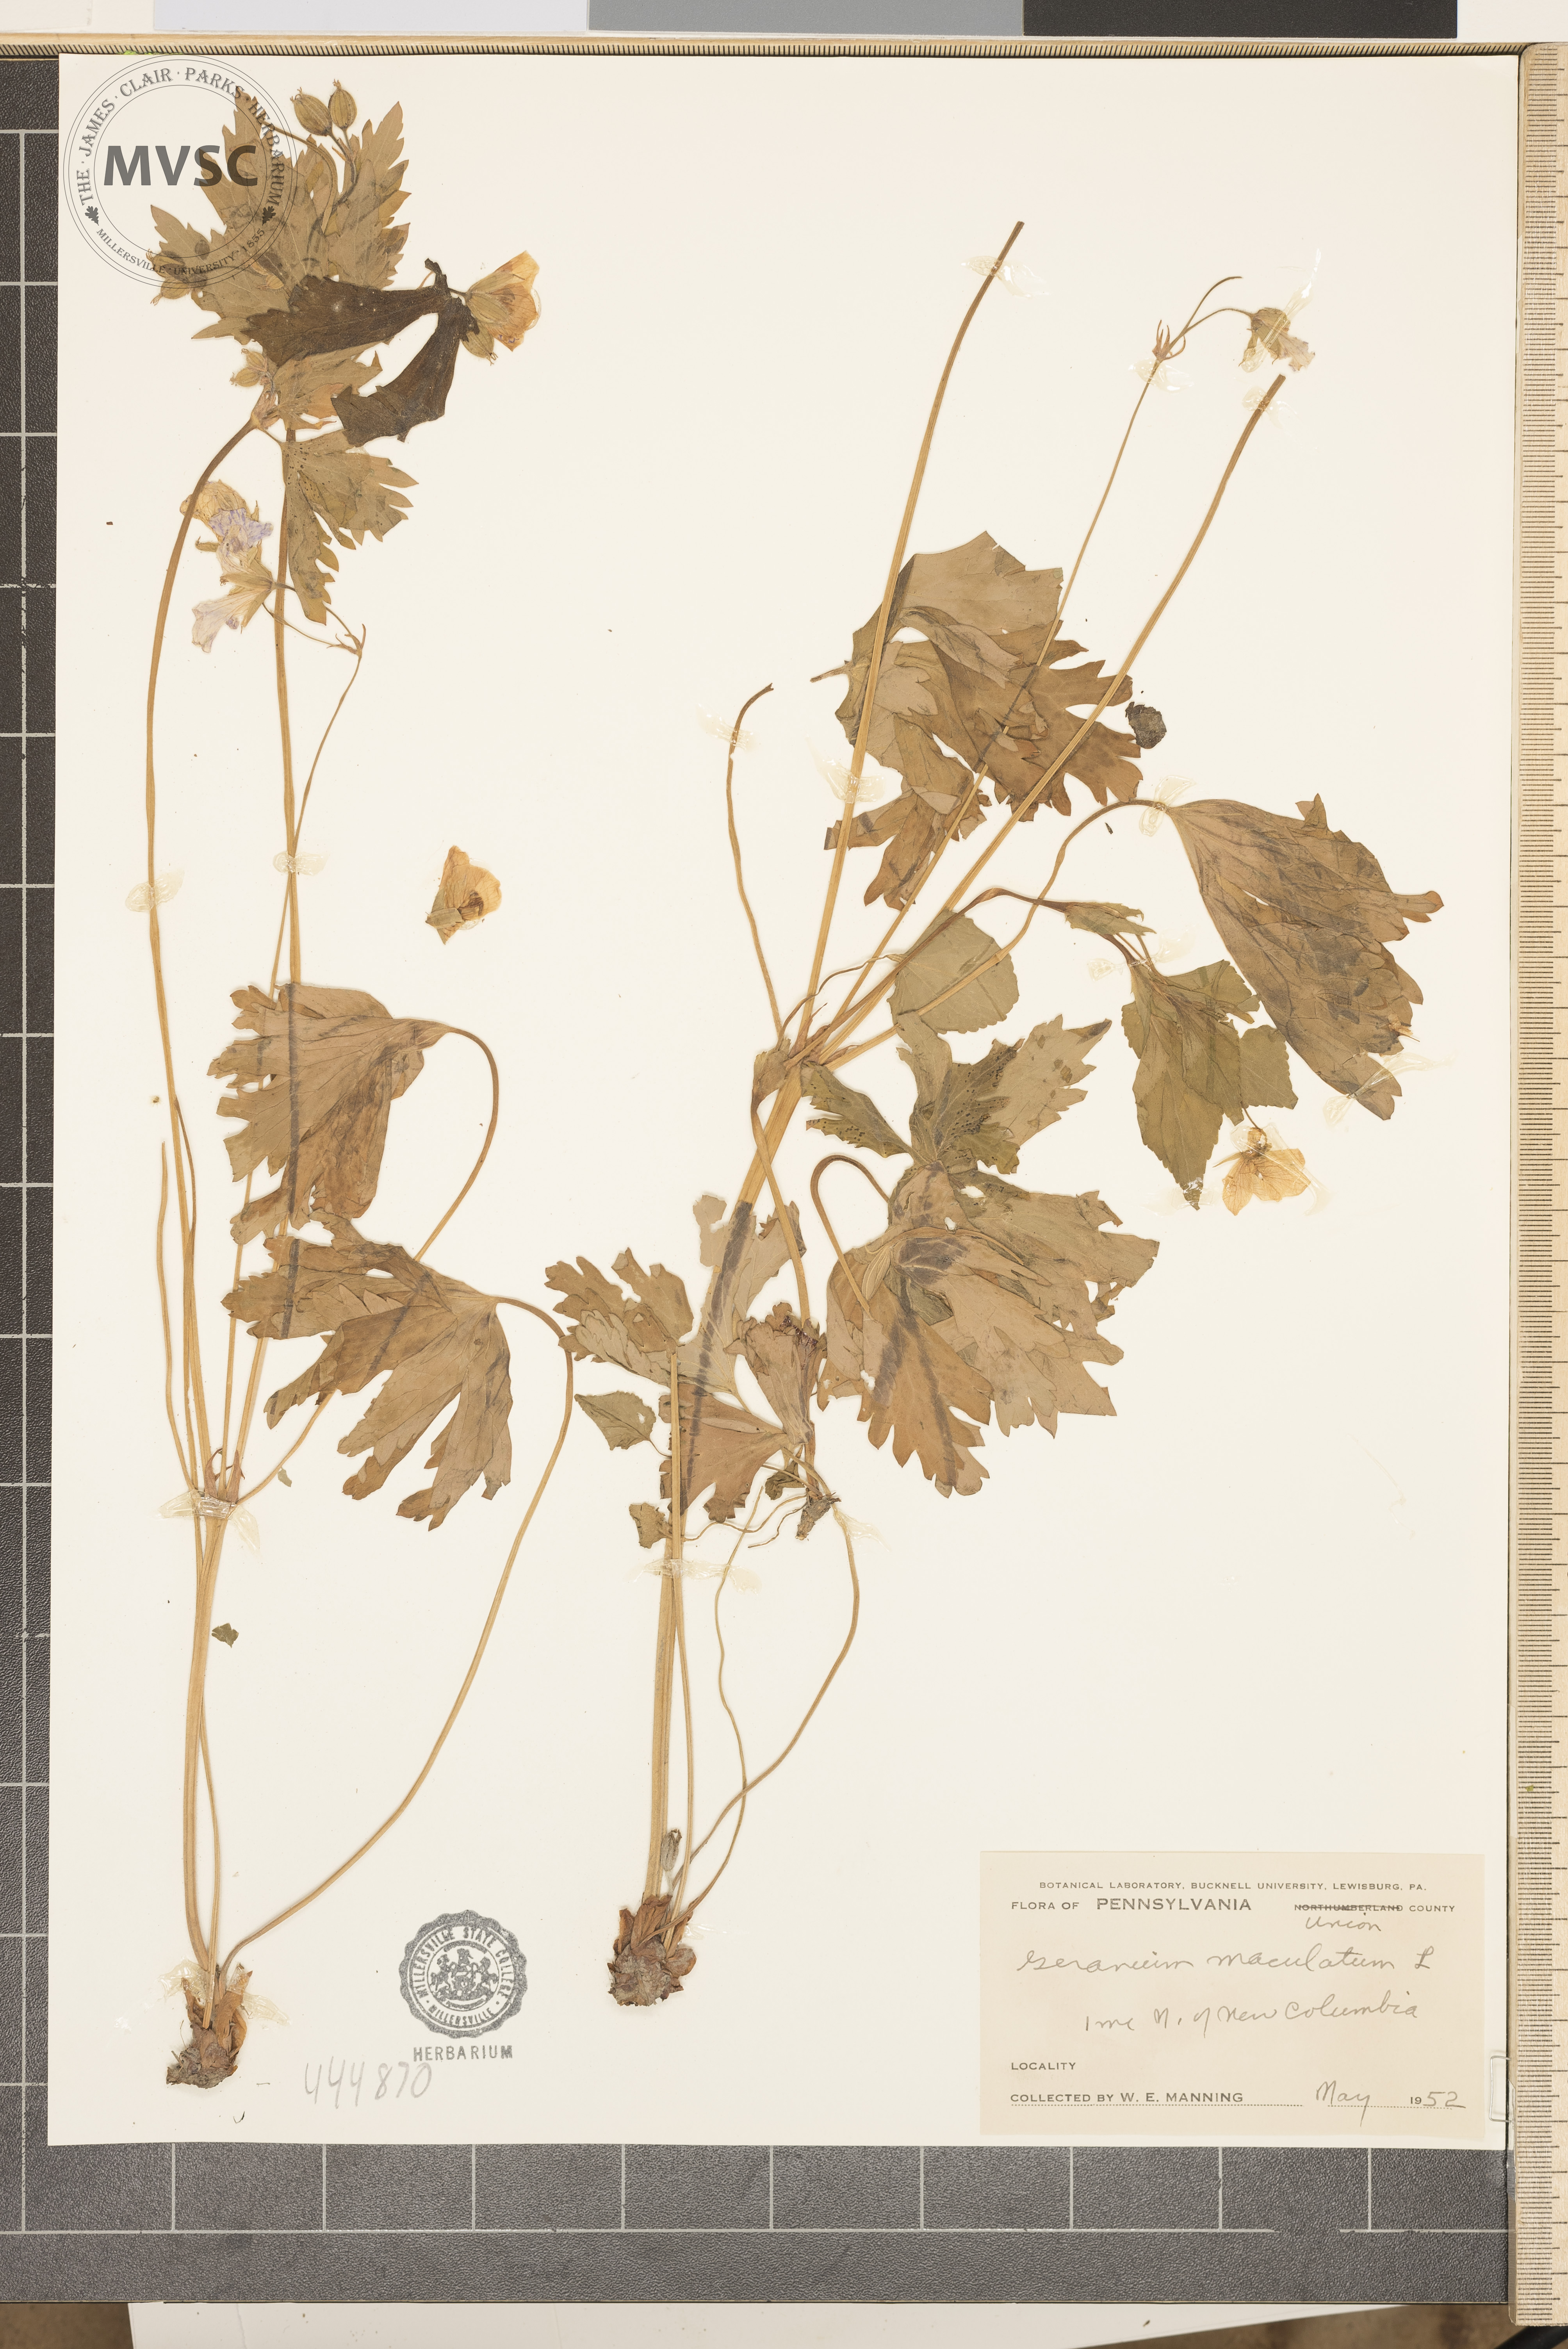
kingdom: Plantae
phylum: Tracheophyta
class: Magnoliopsida
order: Geraniales
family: Geraniaceae
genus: Geranium
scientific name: Geranium maculatum
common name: Spotted geranium
